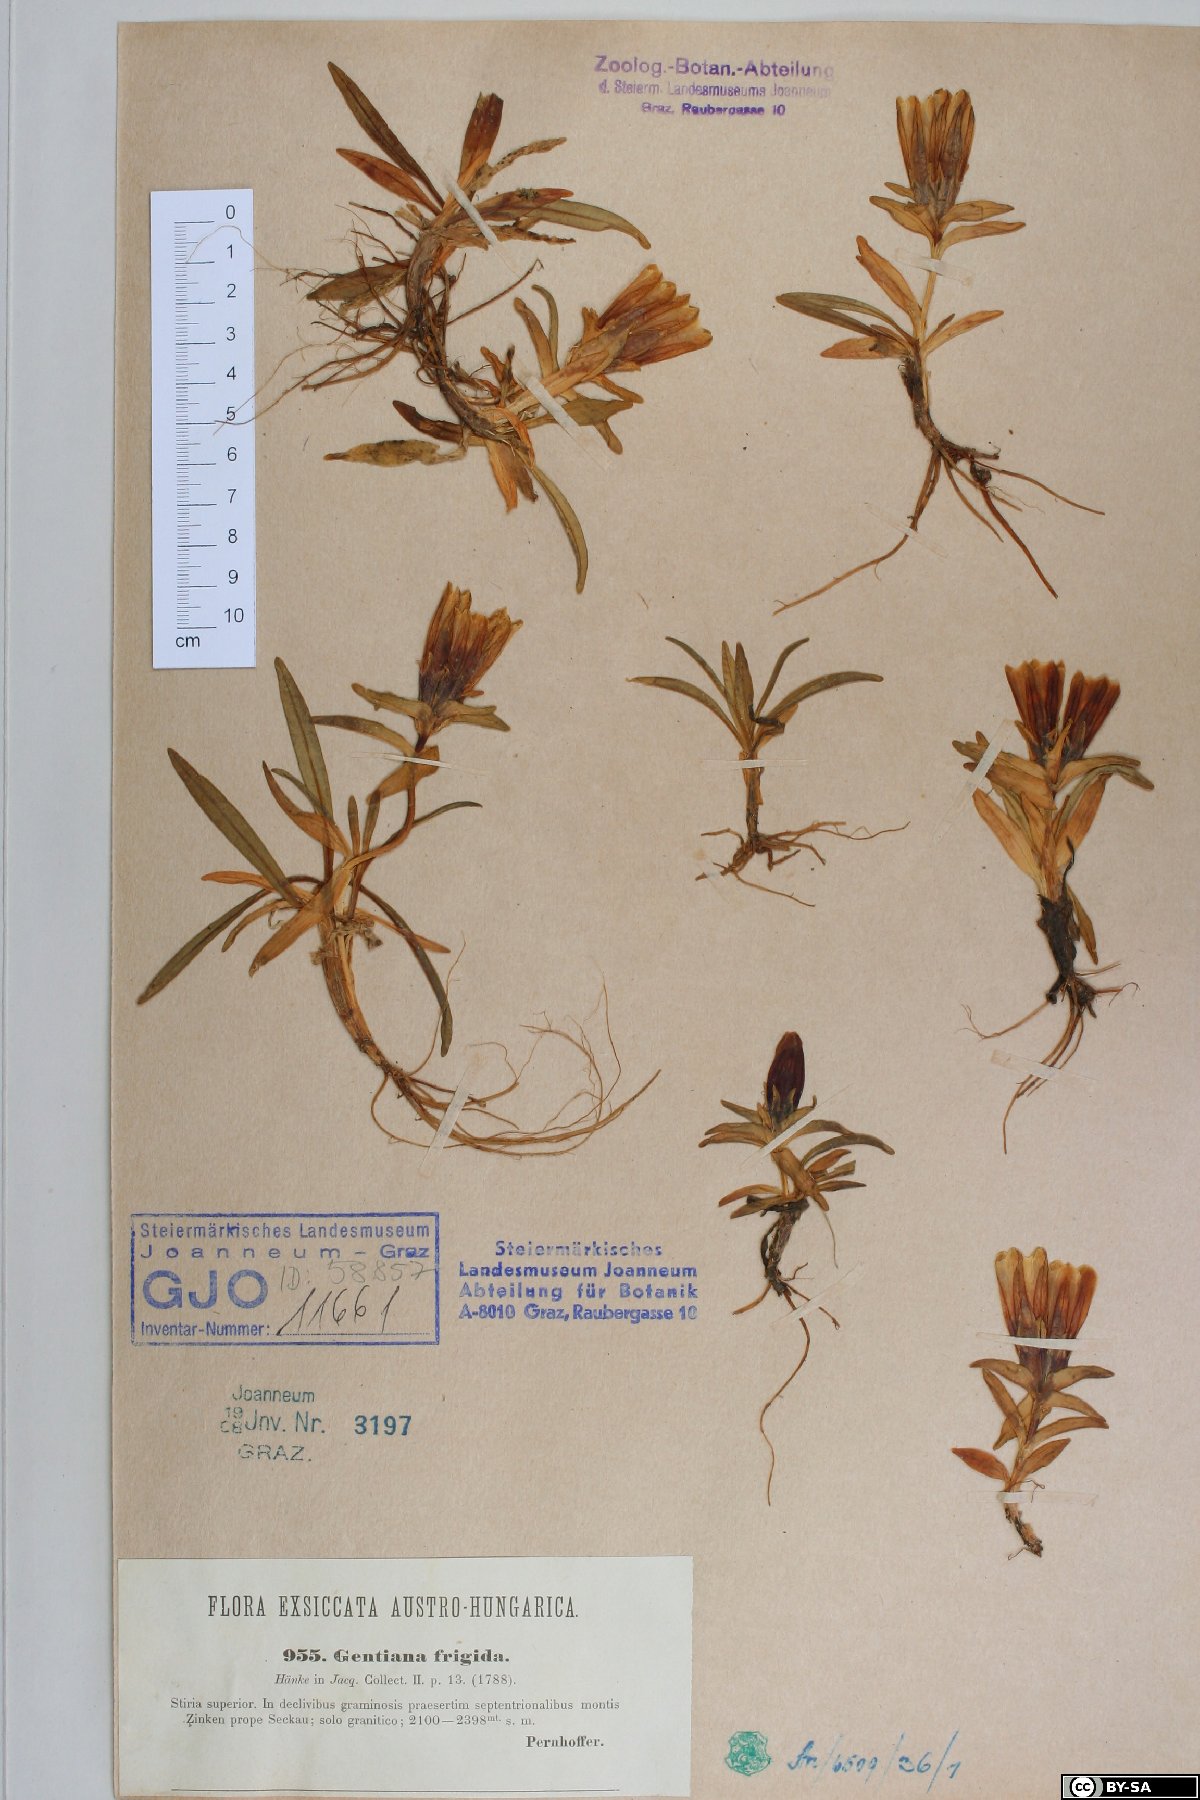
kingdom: Plantae
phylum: Tracheophyta
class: Magnoliopsida
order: Gentianales
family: Gentianaceae
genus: Gentiana
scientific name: Gentiana frigida
